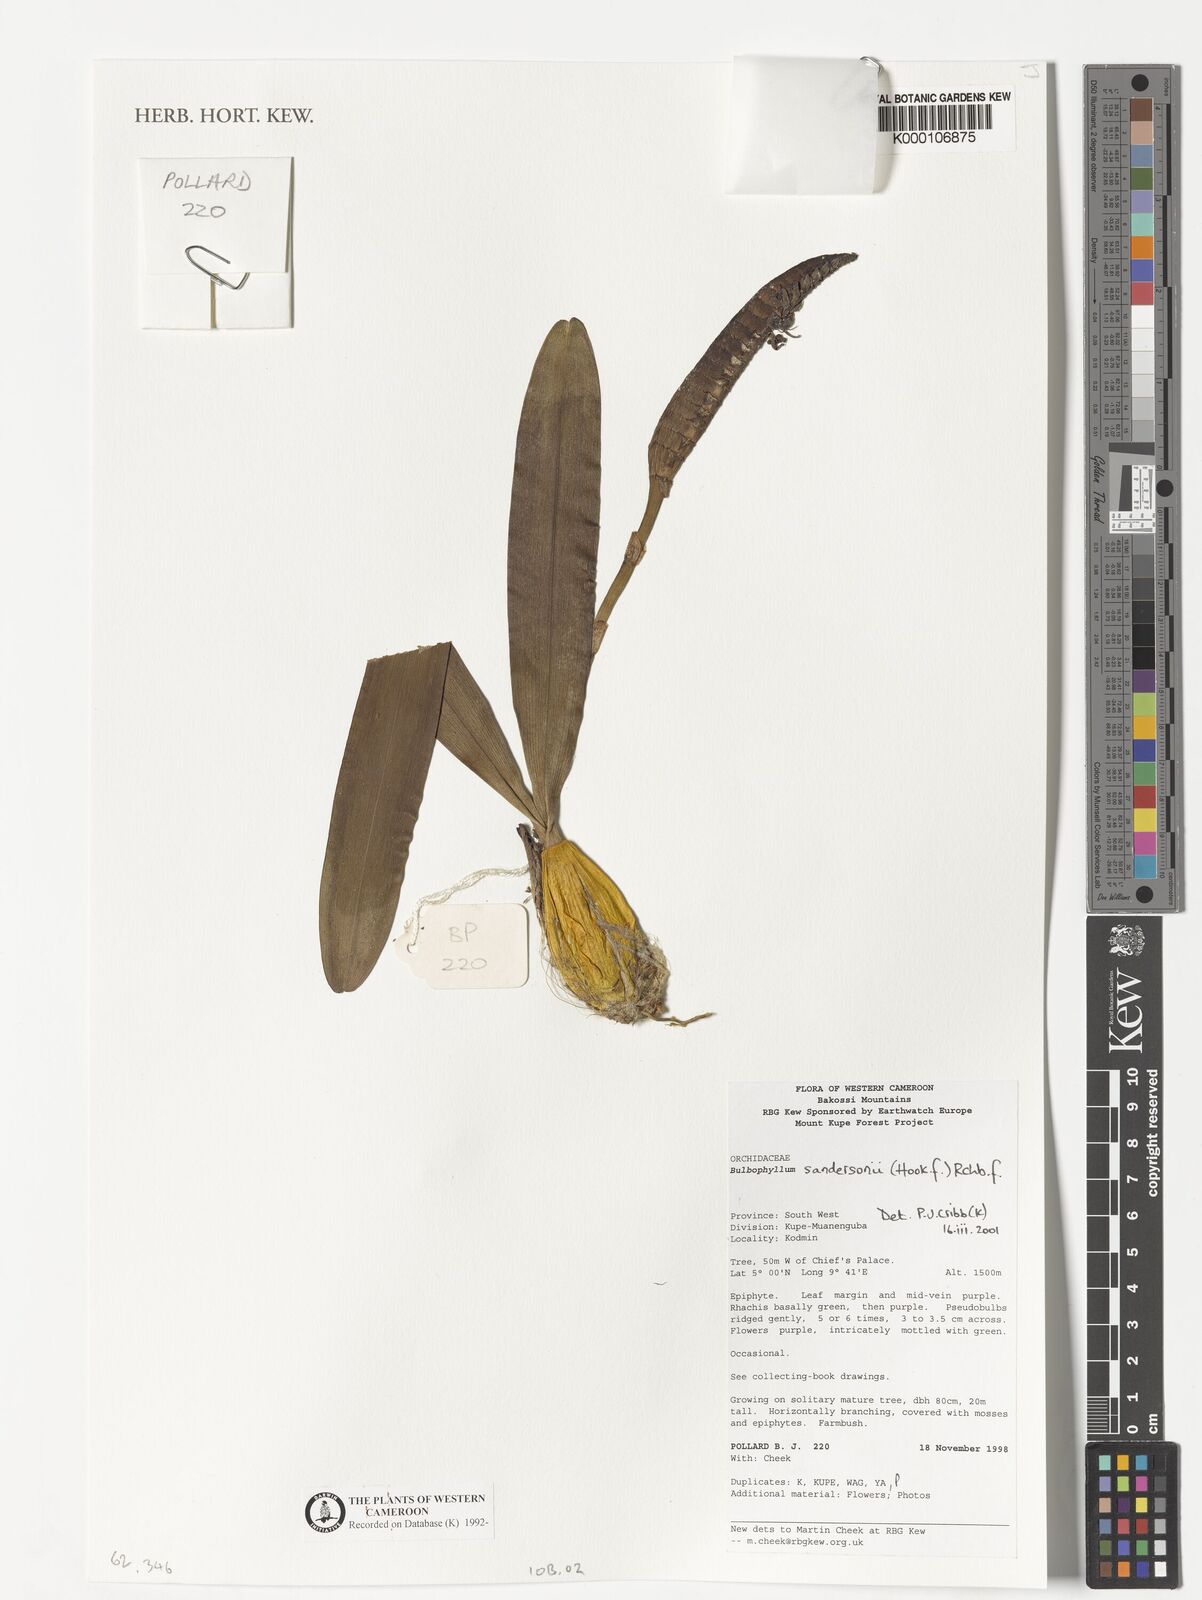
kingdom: Plantae
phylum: Tracheophyta
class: Liliopsida
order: Asparagales
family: Orchidaceae
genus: Bulbophyllum
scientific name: Bulbophyllum sandersonii
